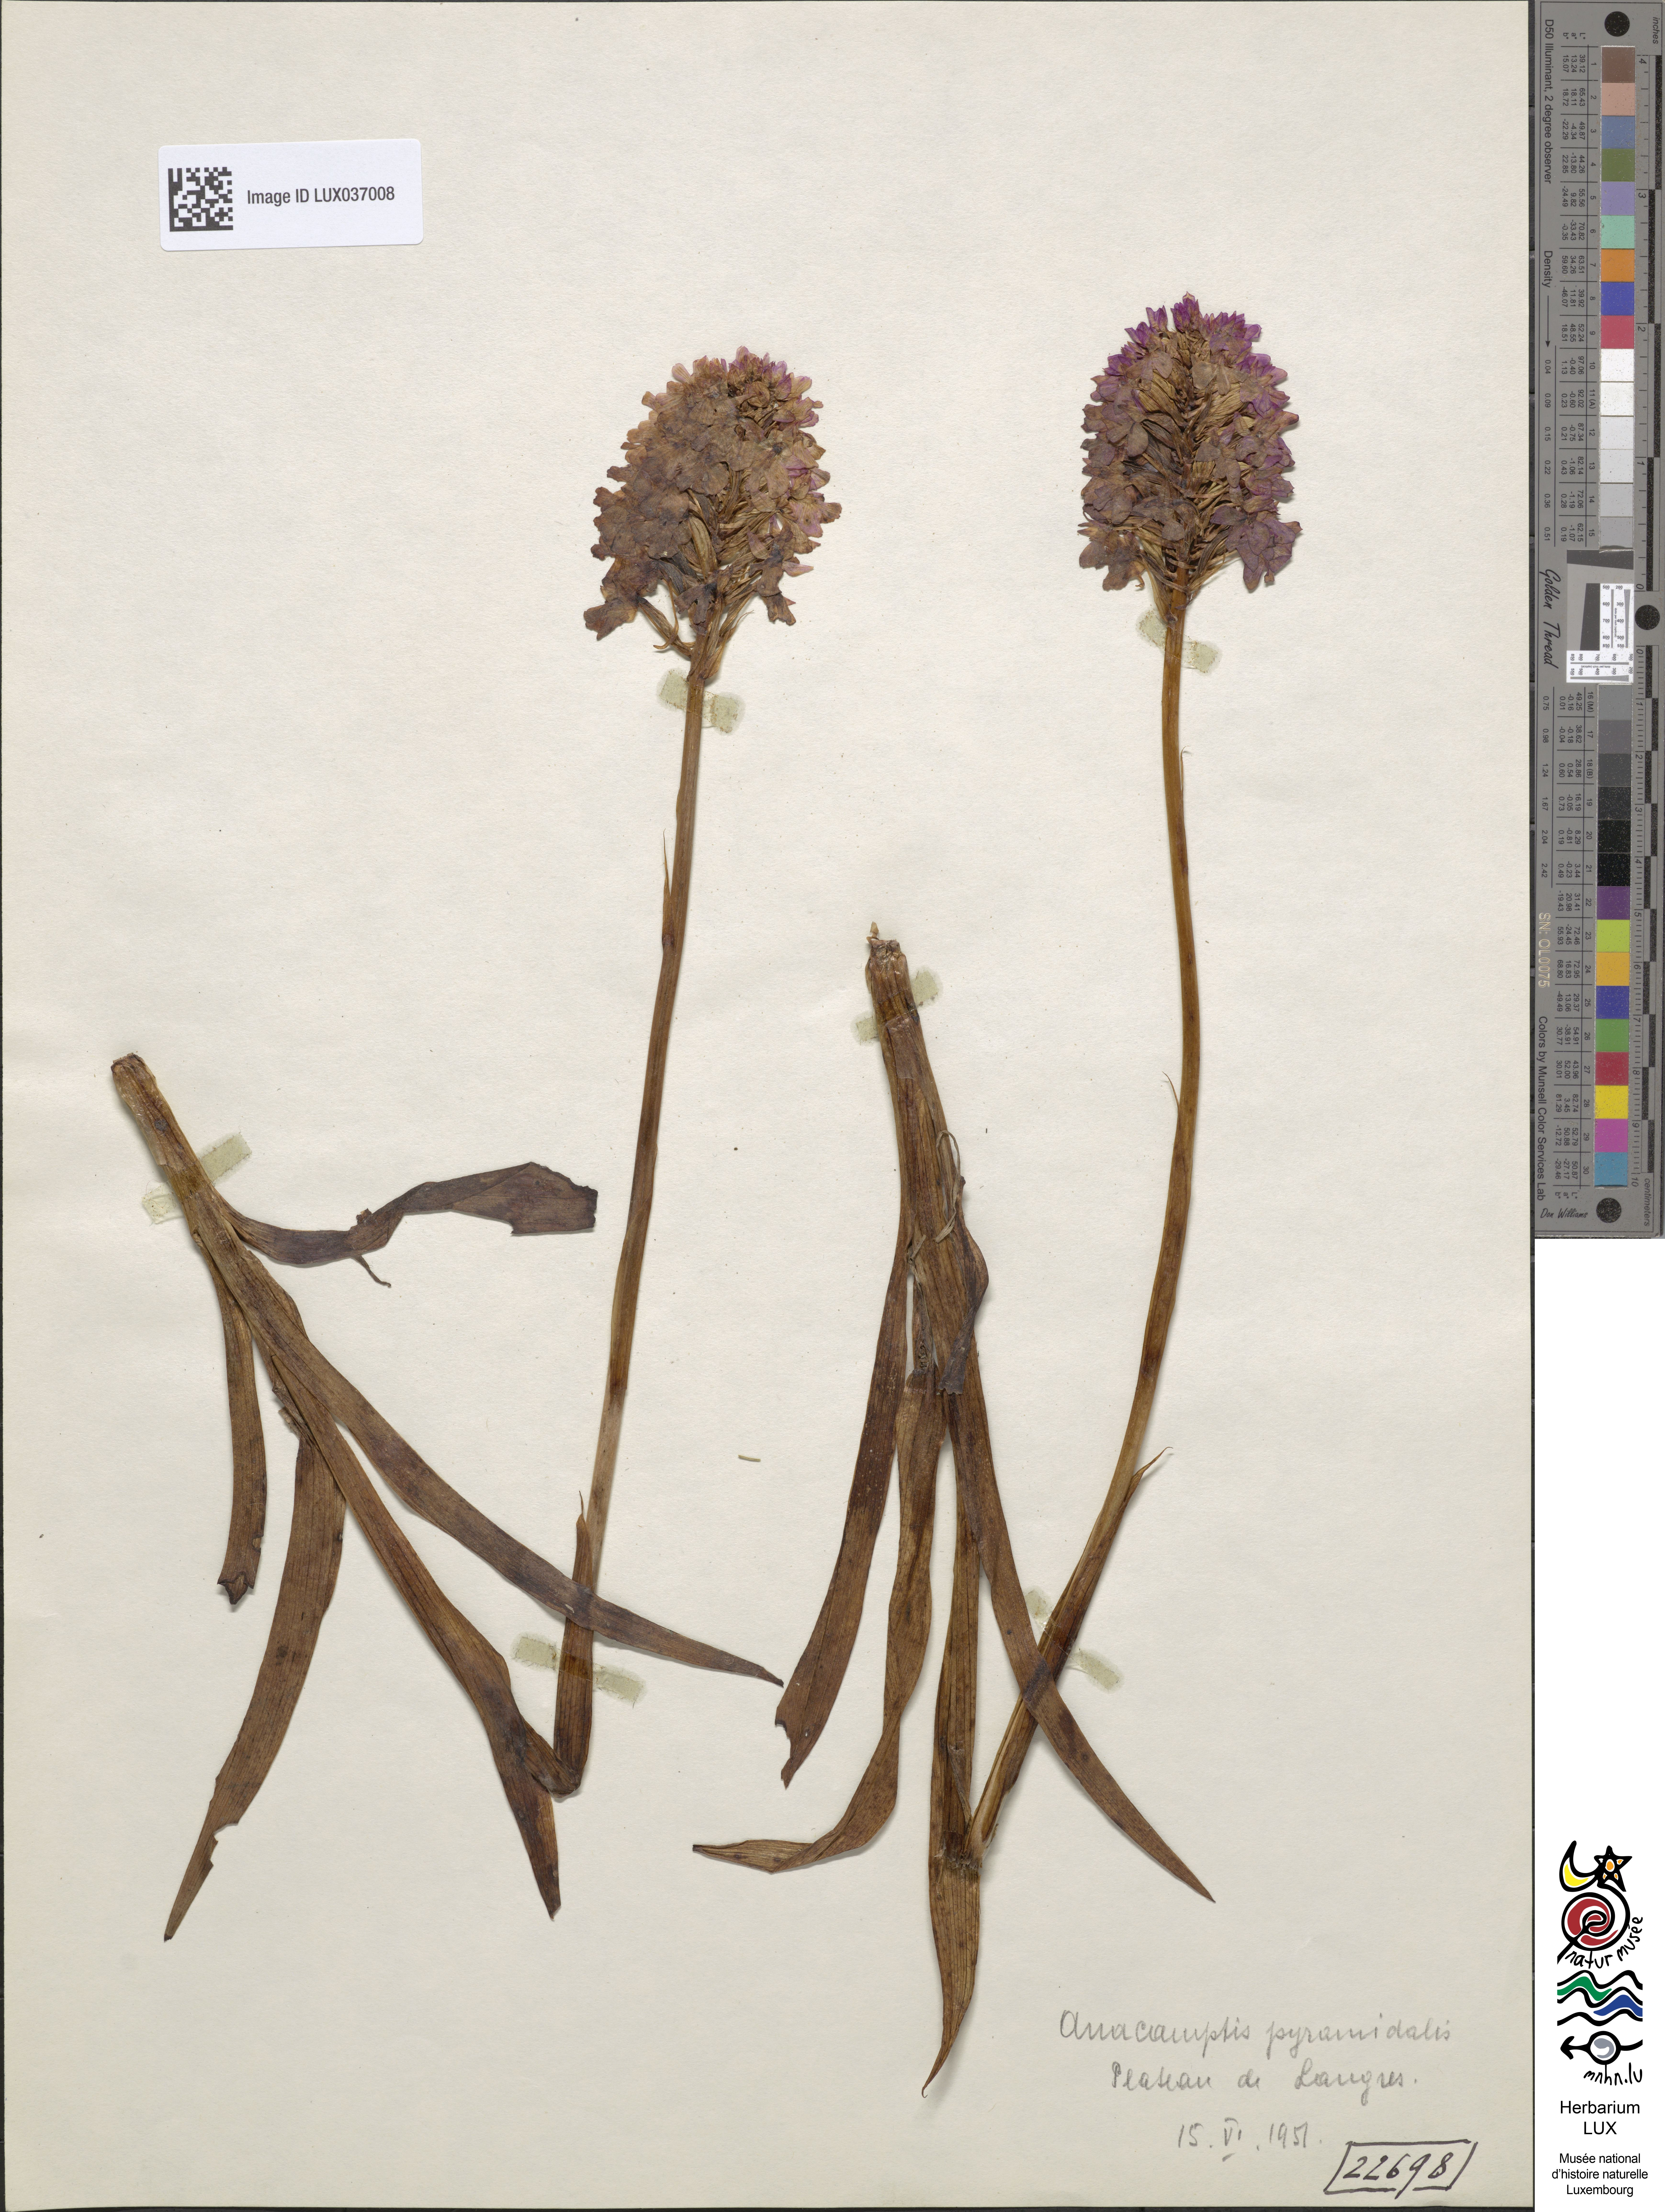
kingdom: Plantae
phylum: Tracheophyta
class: Liliopsida
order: Asparagales
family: Orchidaceae
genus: Anacamptis
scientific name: Anacamptis pyramidalis
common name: Pyramidal orchid
